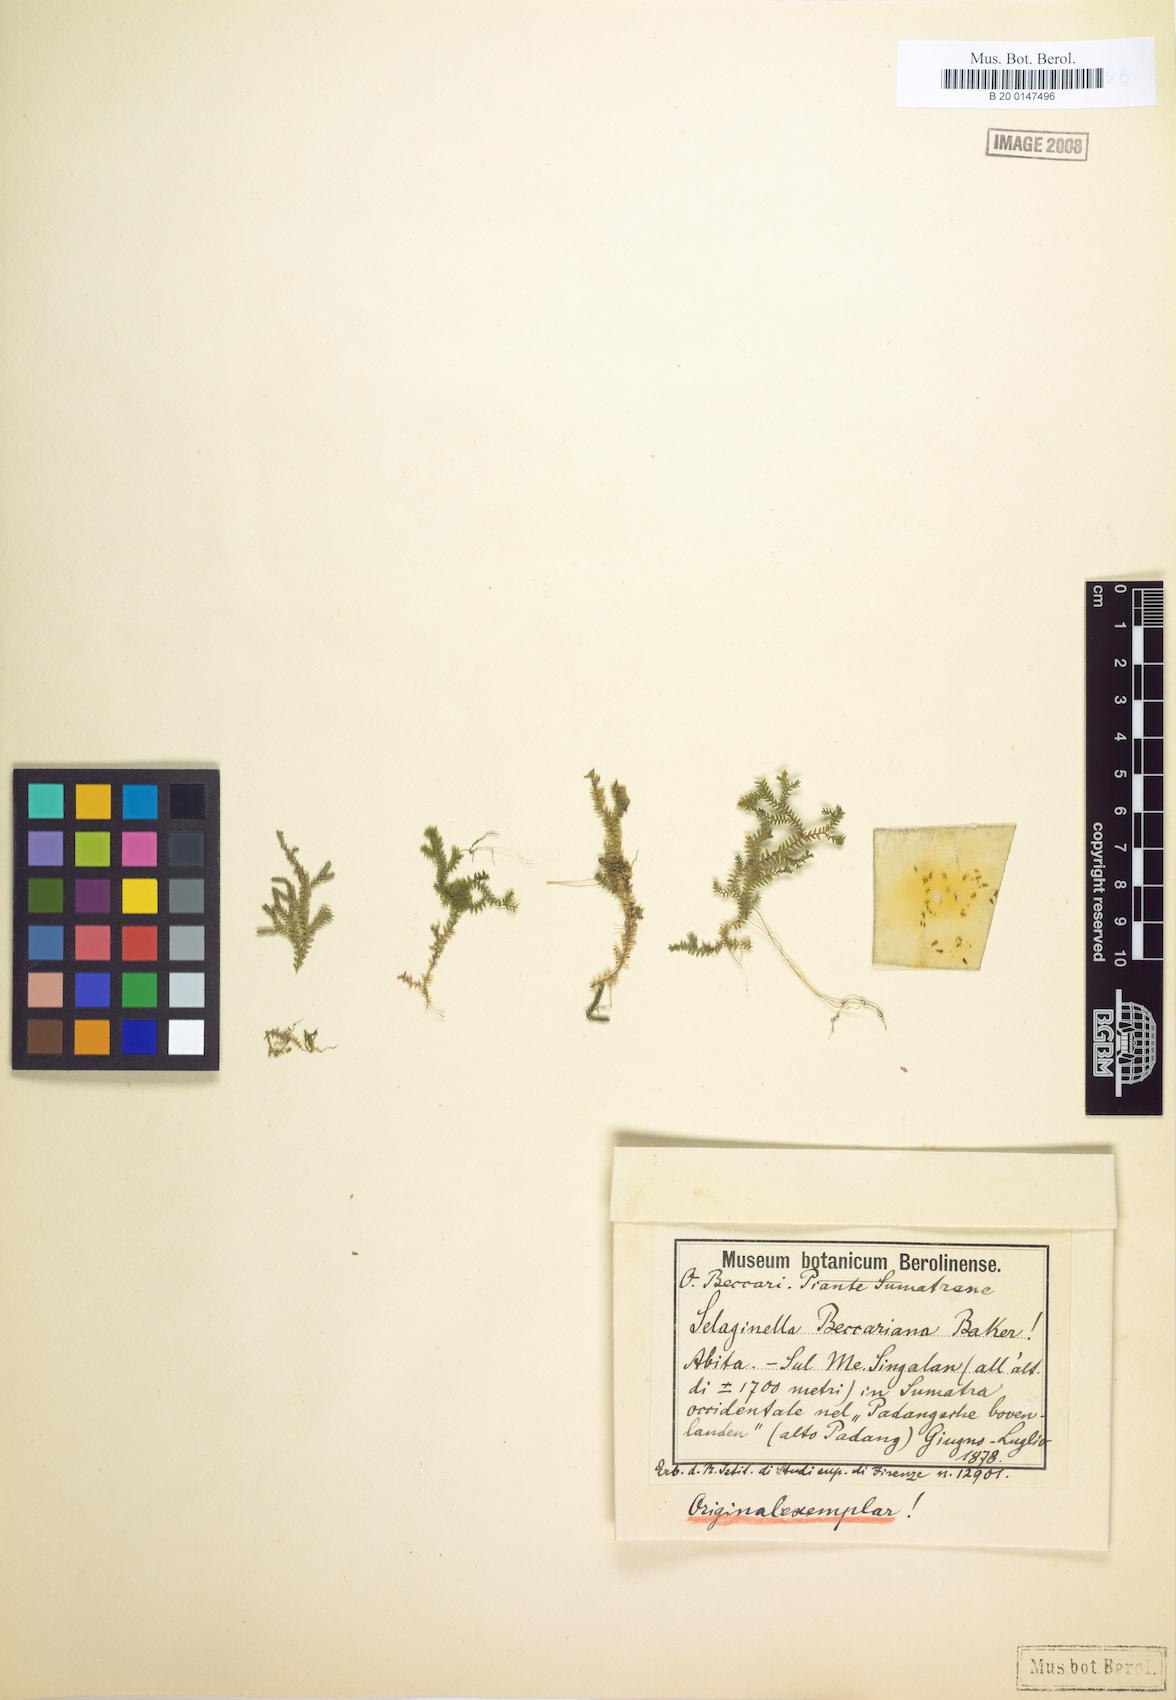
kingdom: Plantae
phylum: Tracheophyta
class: Lycopodiopsida
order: Selaginellales
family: Selaginellaceae
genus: Selaginella
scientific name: Selaginella beccariana
